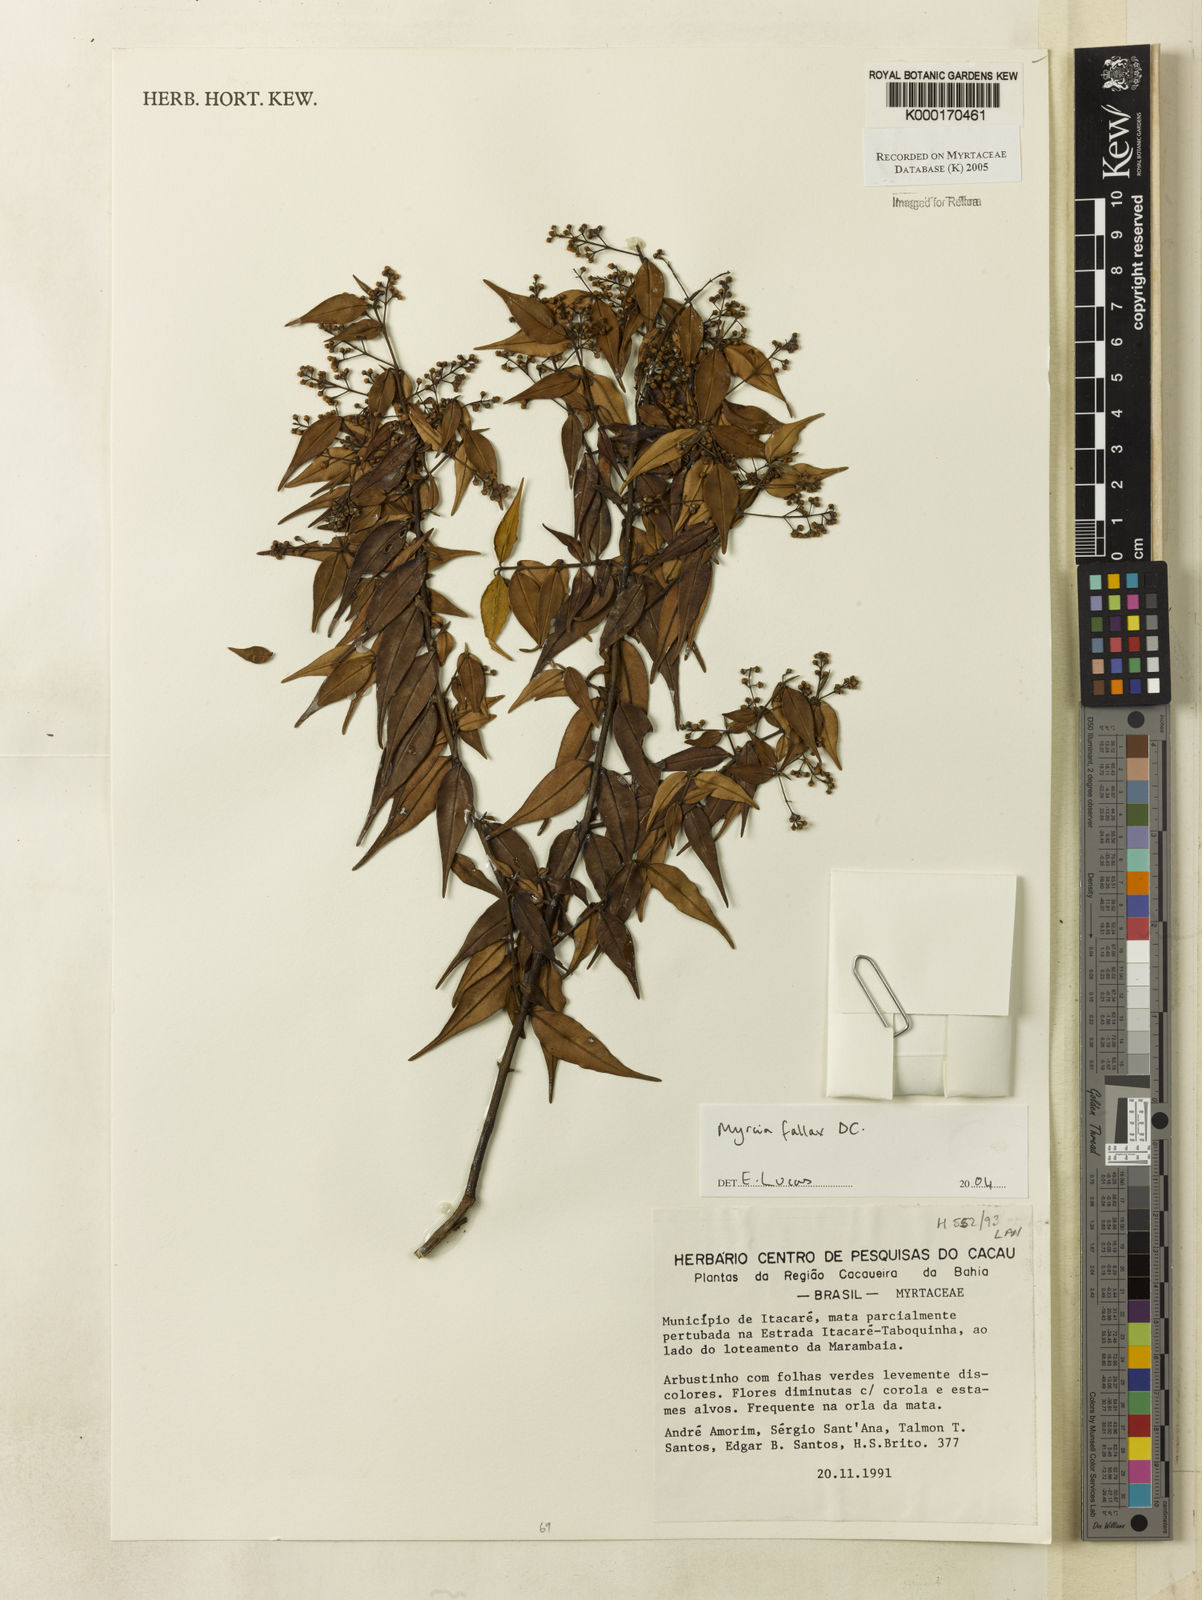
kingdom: Plantae
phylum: Tracheophyta
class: Magnoliopsida
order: Myrtales
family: Myrtaceae
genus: Myrcia
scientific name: Myrcia splendens
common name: Surinam cherry
